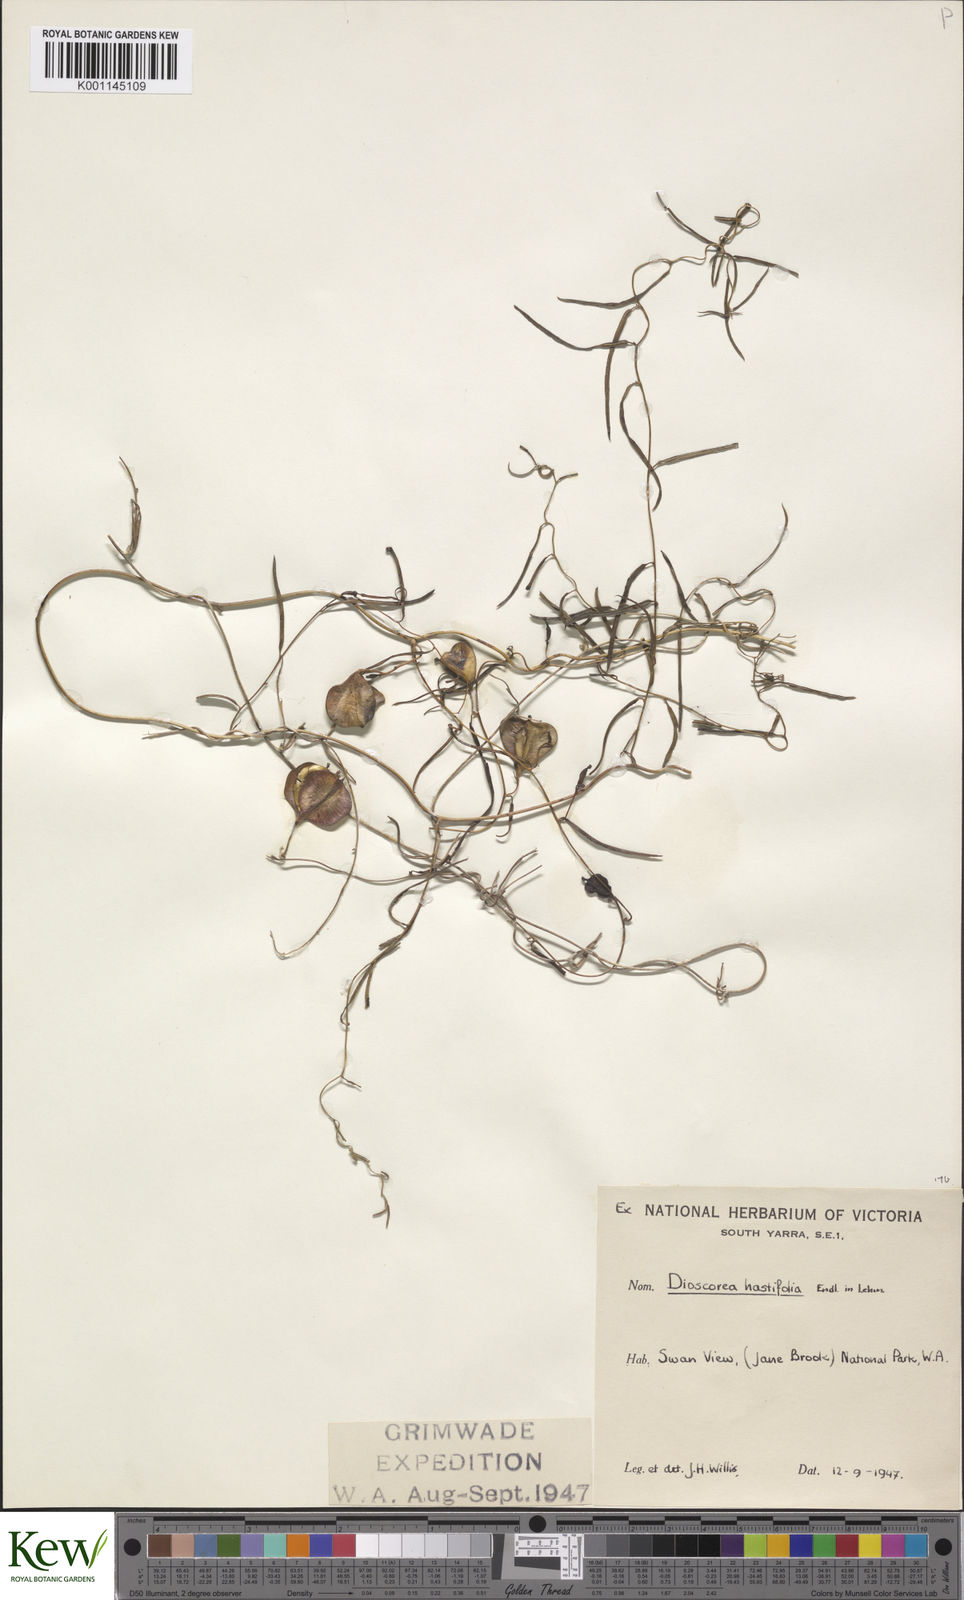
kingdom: Plantae
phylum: Tracheophyta
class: Liliopsida
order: Dioscoreales
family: Dioscoreaceae
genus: Dioscorea
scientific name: Dioscorea hastifolia
